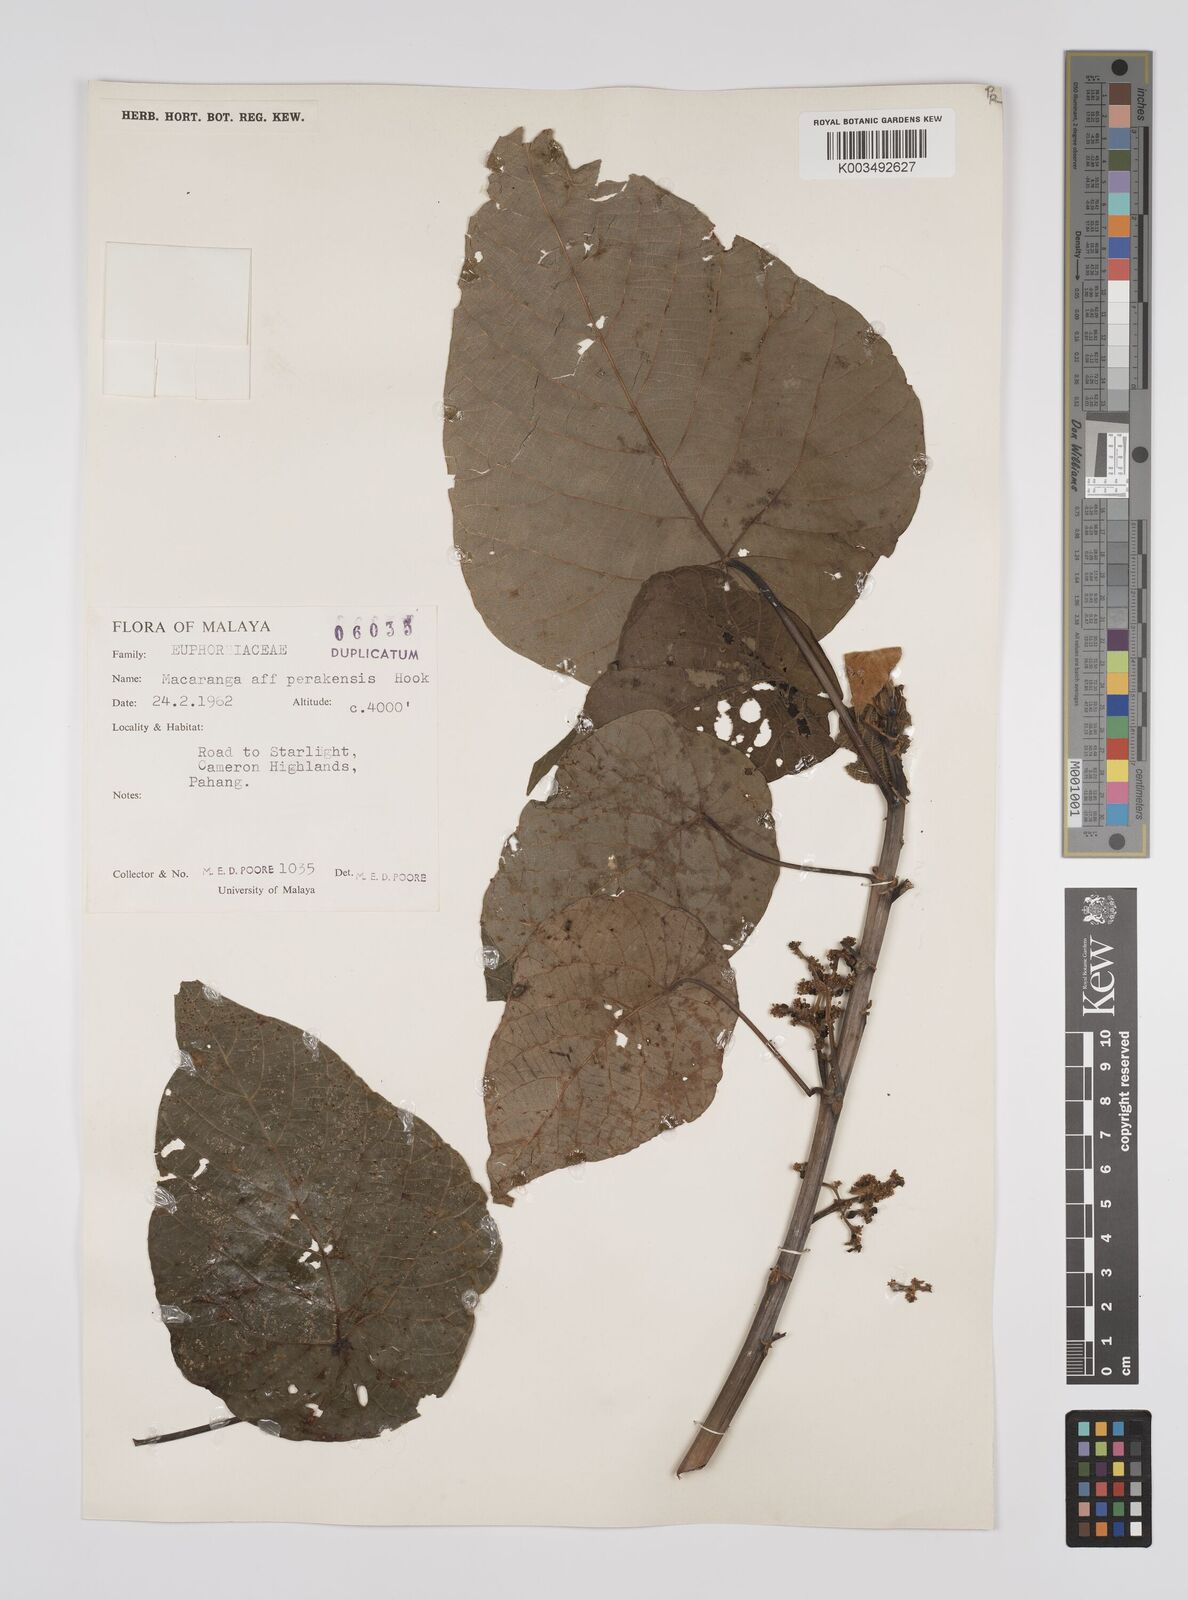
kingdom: Plantae
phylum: Tracheophyta
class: Magnoliopsida
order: Malpighiales
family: Euphorbiaceae
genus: Macaranga
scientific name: Macaranga indica
